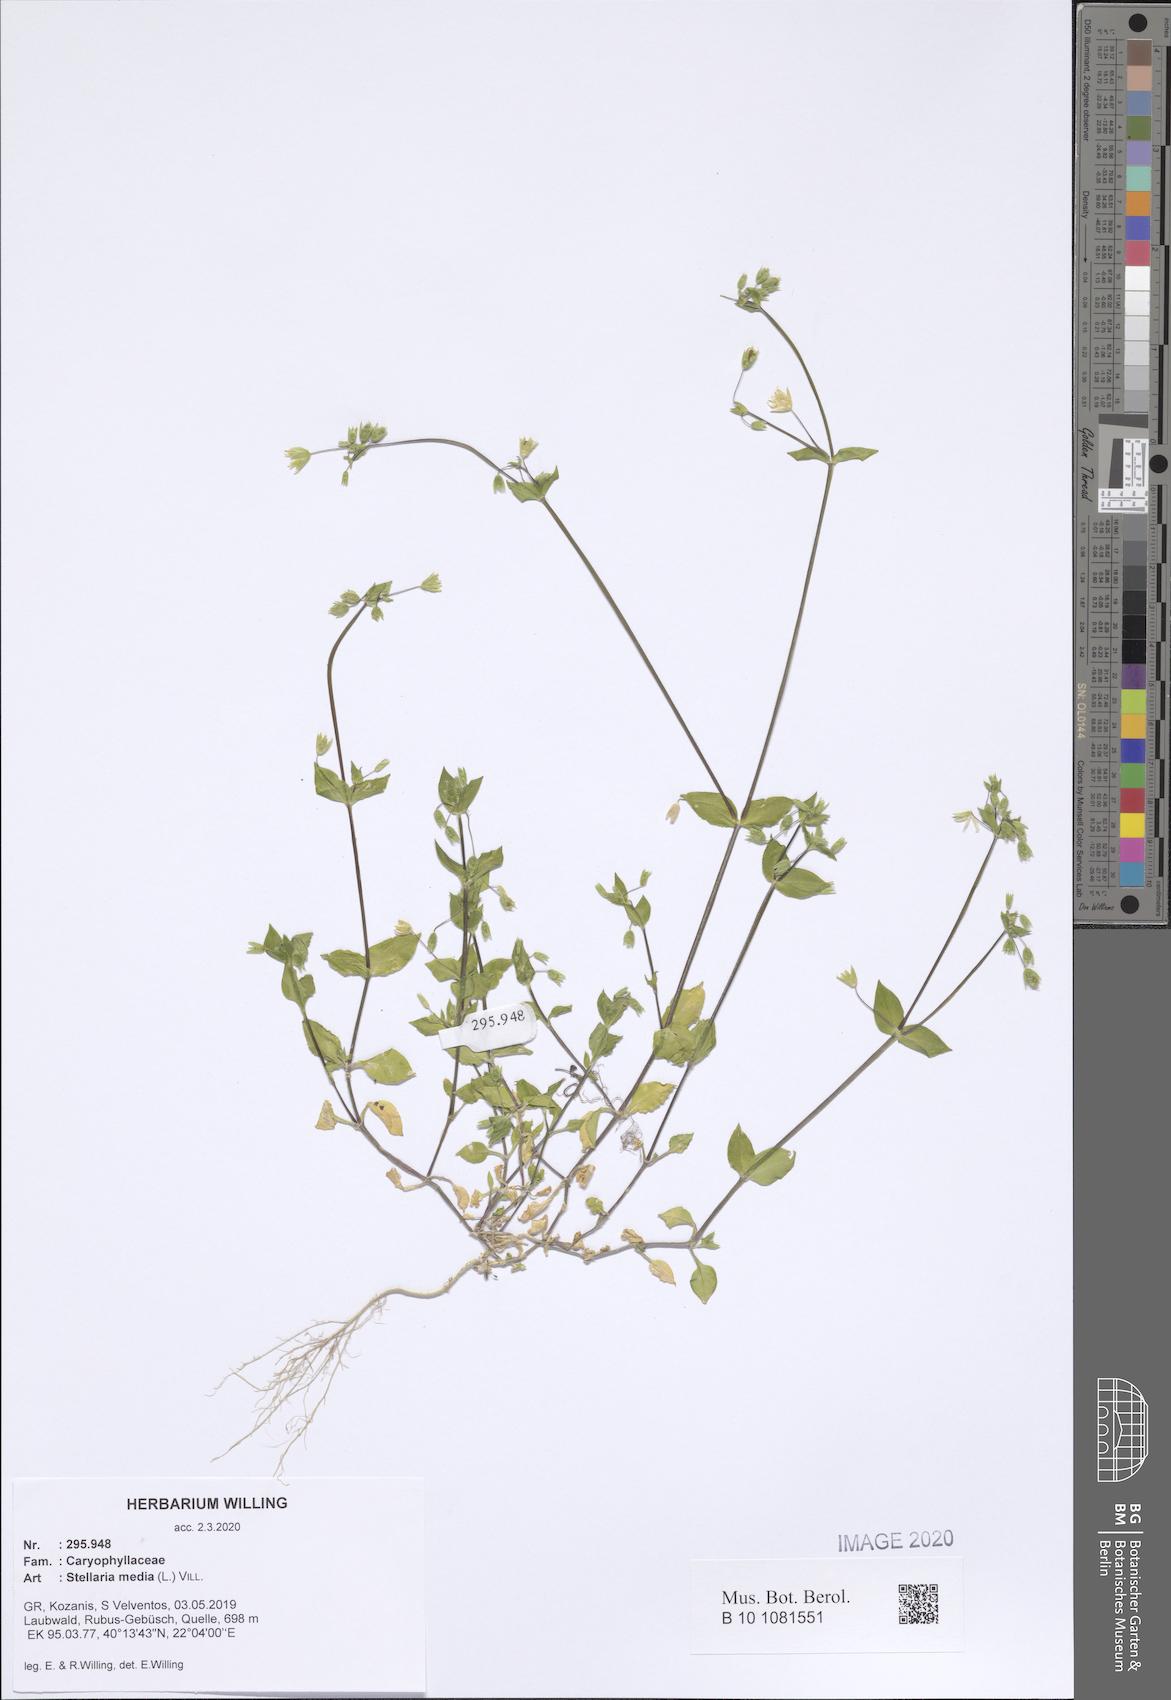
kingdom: Plantae
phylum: Tracheophyta
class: Magnoliopsida
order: Caryophyllales
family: Caryophyllaceae
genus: Stellaria
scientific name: Stellaria media
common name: Common chickweed
